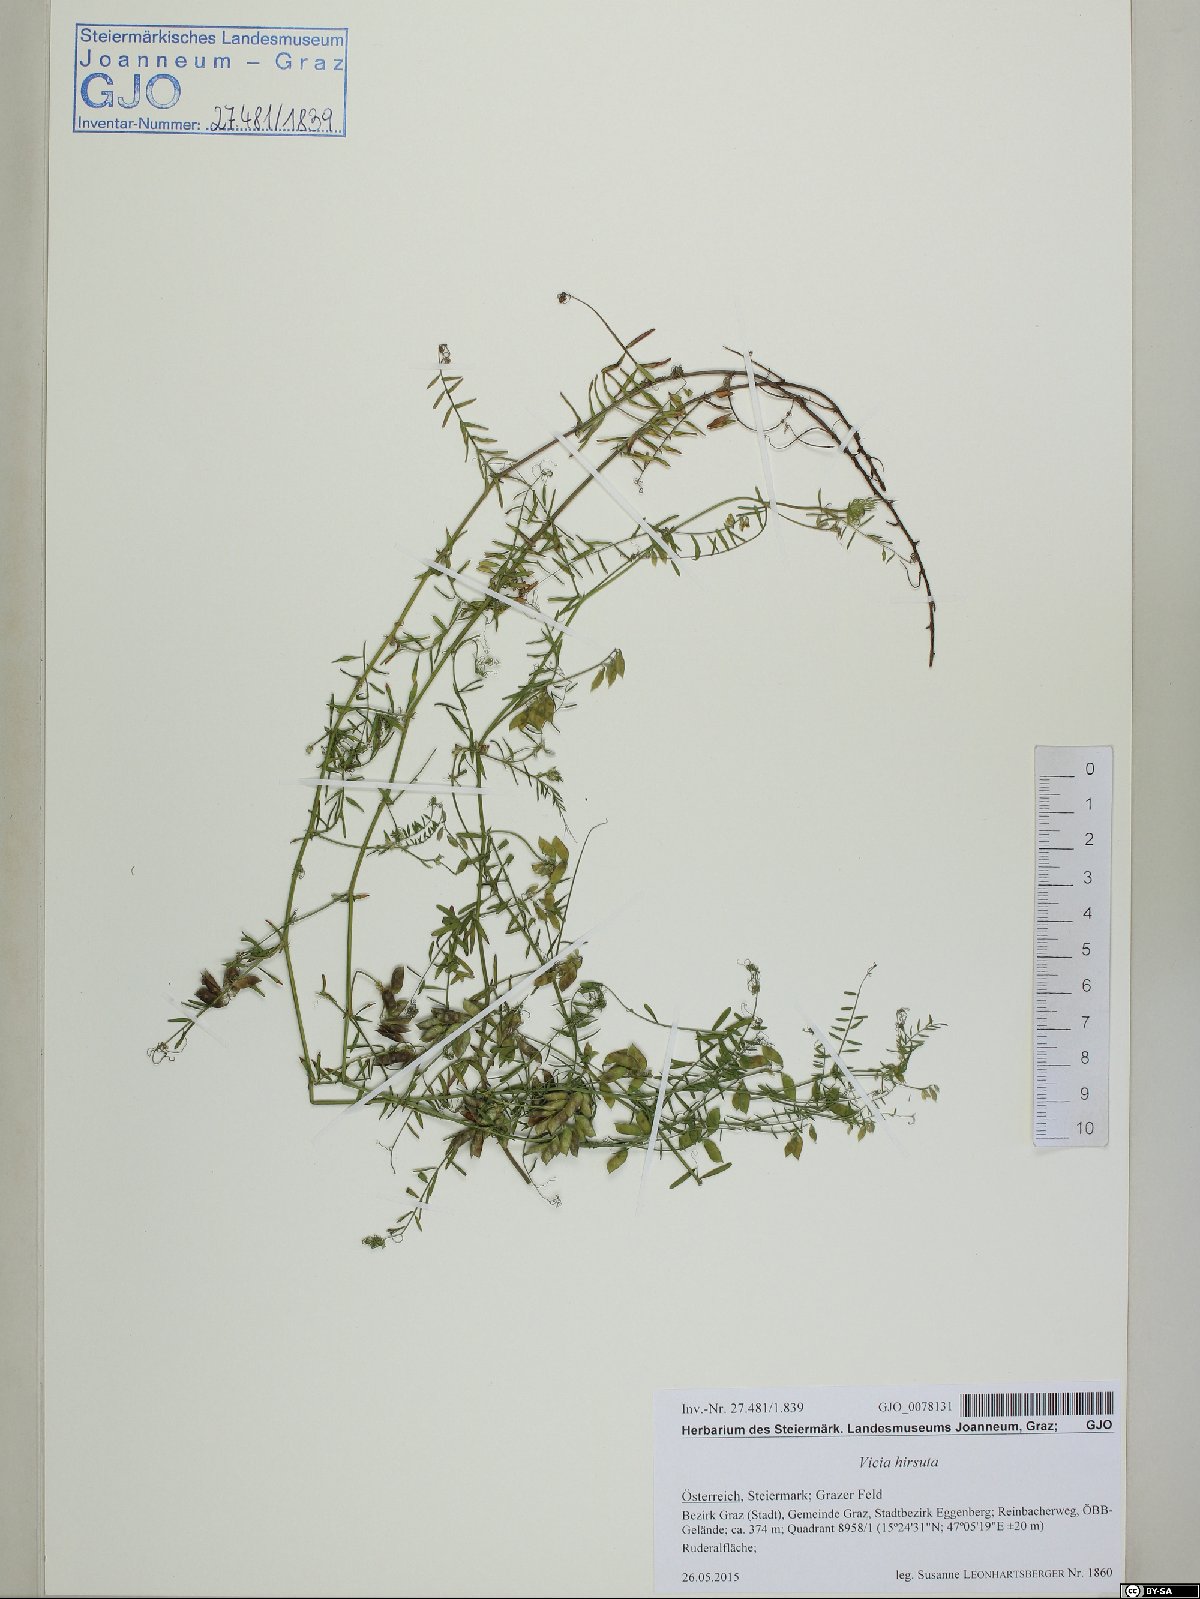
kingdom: Plantae
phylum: Tracheophyta
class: Magnoliopsida
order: Fabales
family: Fabaceae
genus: Vicia
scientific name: Vicia hirsuta
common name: Tiny vetch
